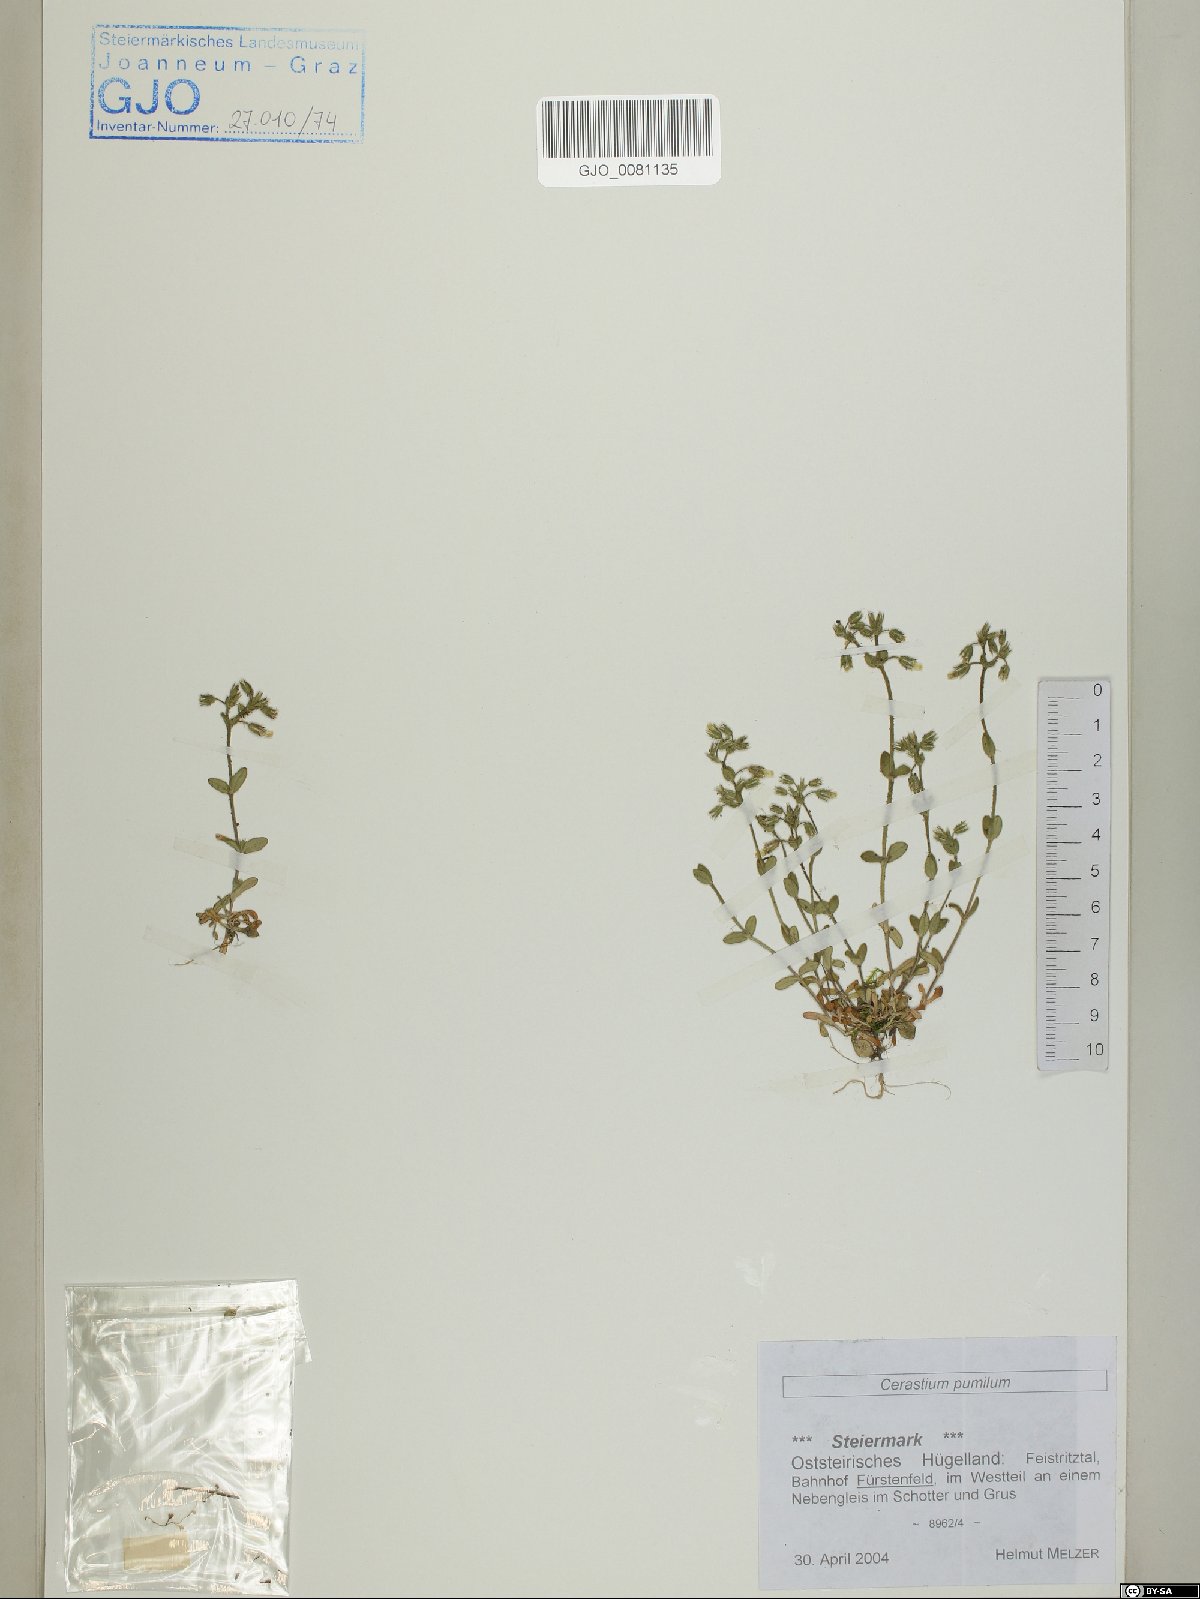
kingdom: Plantae
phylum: Tracheophyta
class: Magnoliopsida
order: Caryophyllales
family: Caryophyllaceae
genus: Cerastium
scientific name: Cerastium pumilum
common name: Dwarf mouse-ear
